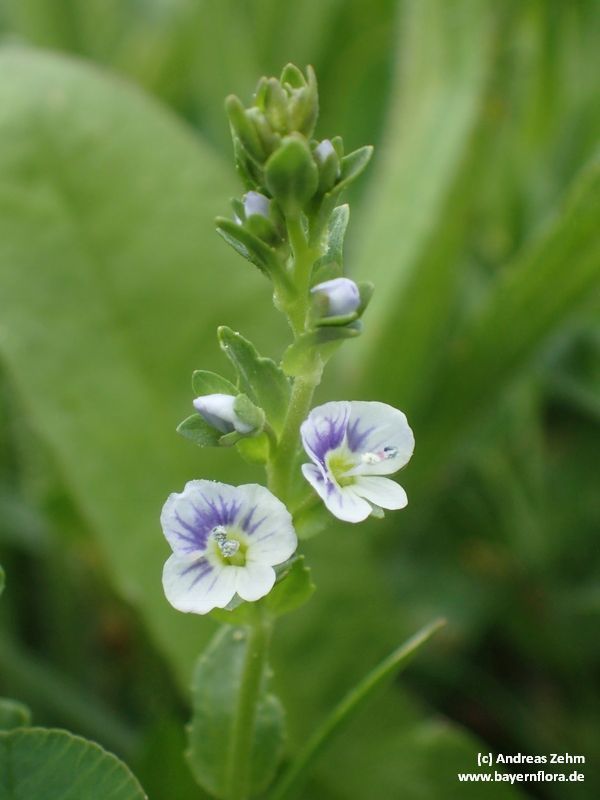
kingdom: Plantae
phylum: Tracheophyta
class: Magnoliopsida
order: Lamiales
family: Plantaginaceae
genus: Veronica
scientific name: Veronica serpyllifolia
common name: Thyme-leaved speedwell
